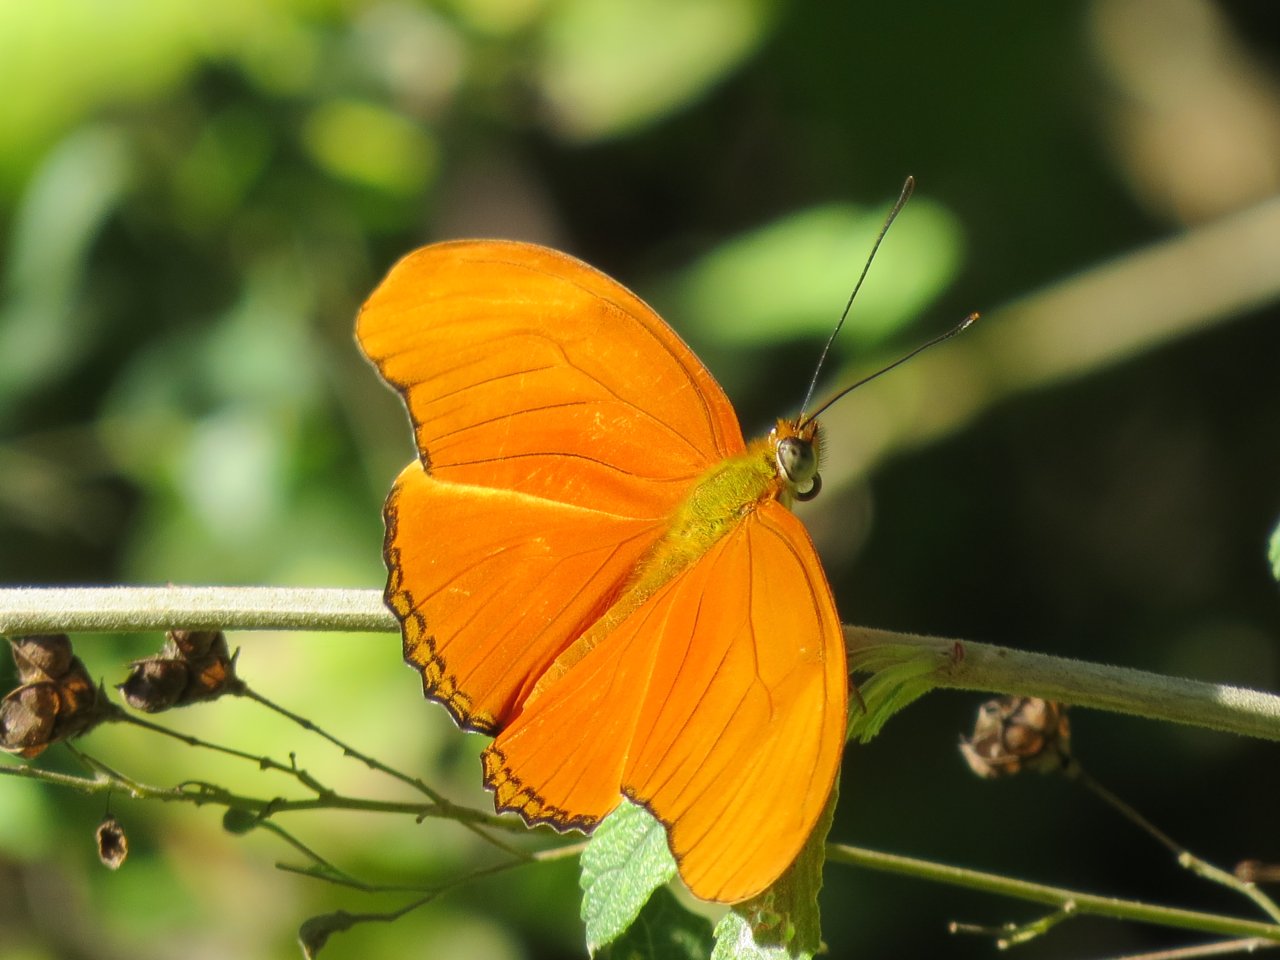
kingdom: Animalia
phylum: Arthropoda
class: Insecta
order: Lepidoptera
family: Nymphalidae
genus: Dryas
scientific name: Dryas iulia
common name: Julia
